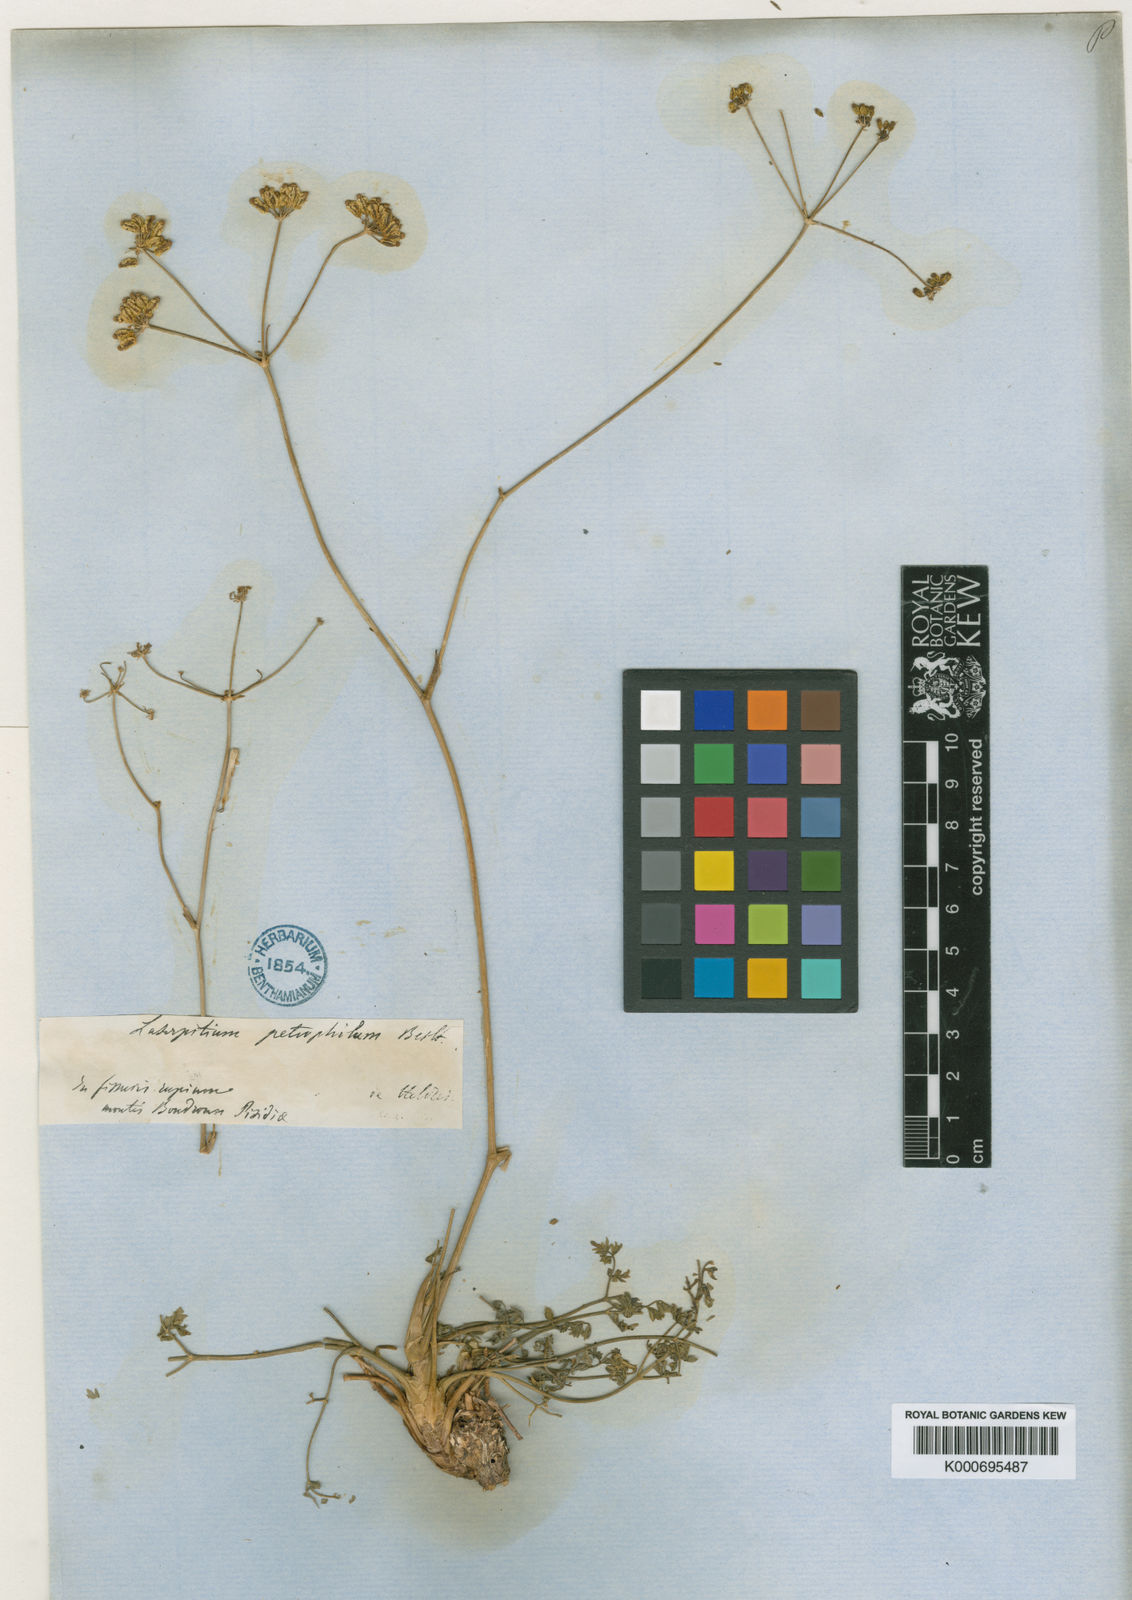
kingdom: Plantae
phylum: Tracheophyta
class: Magnoliopsida
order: Apiales
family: Apiaceae
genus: Ekimia
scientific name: Ekimia petrophila
